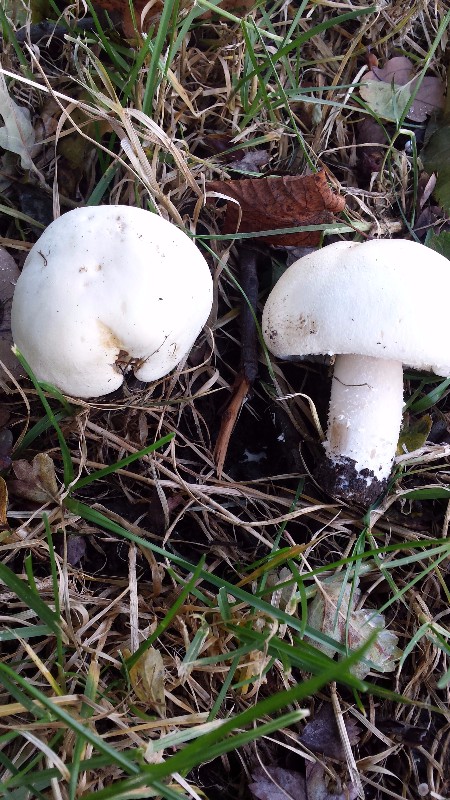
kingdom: Fungi
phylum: Basidiomycota
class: Agaricomycetes
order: Agaricales
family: Agaricaceae
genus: Agaricus
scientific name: Agaricus
